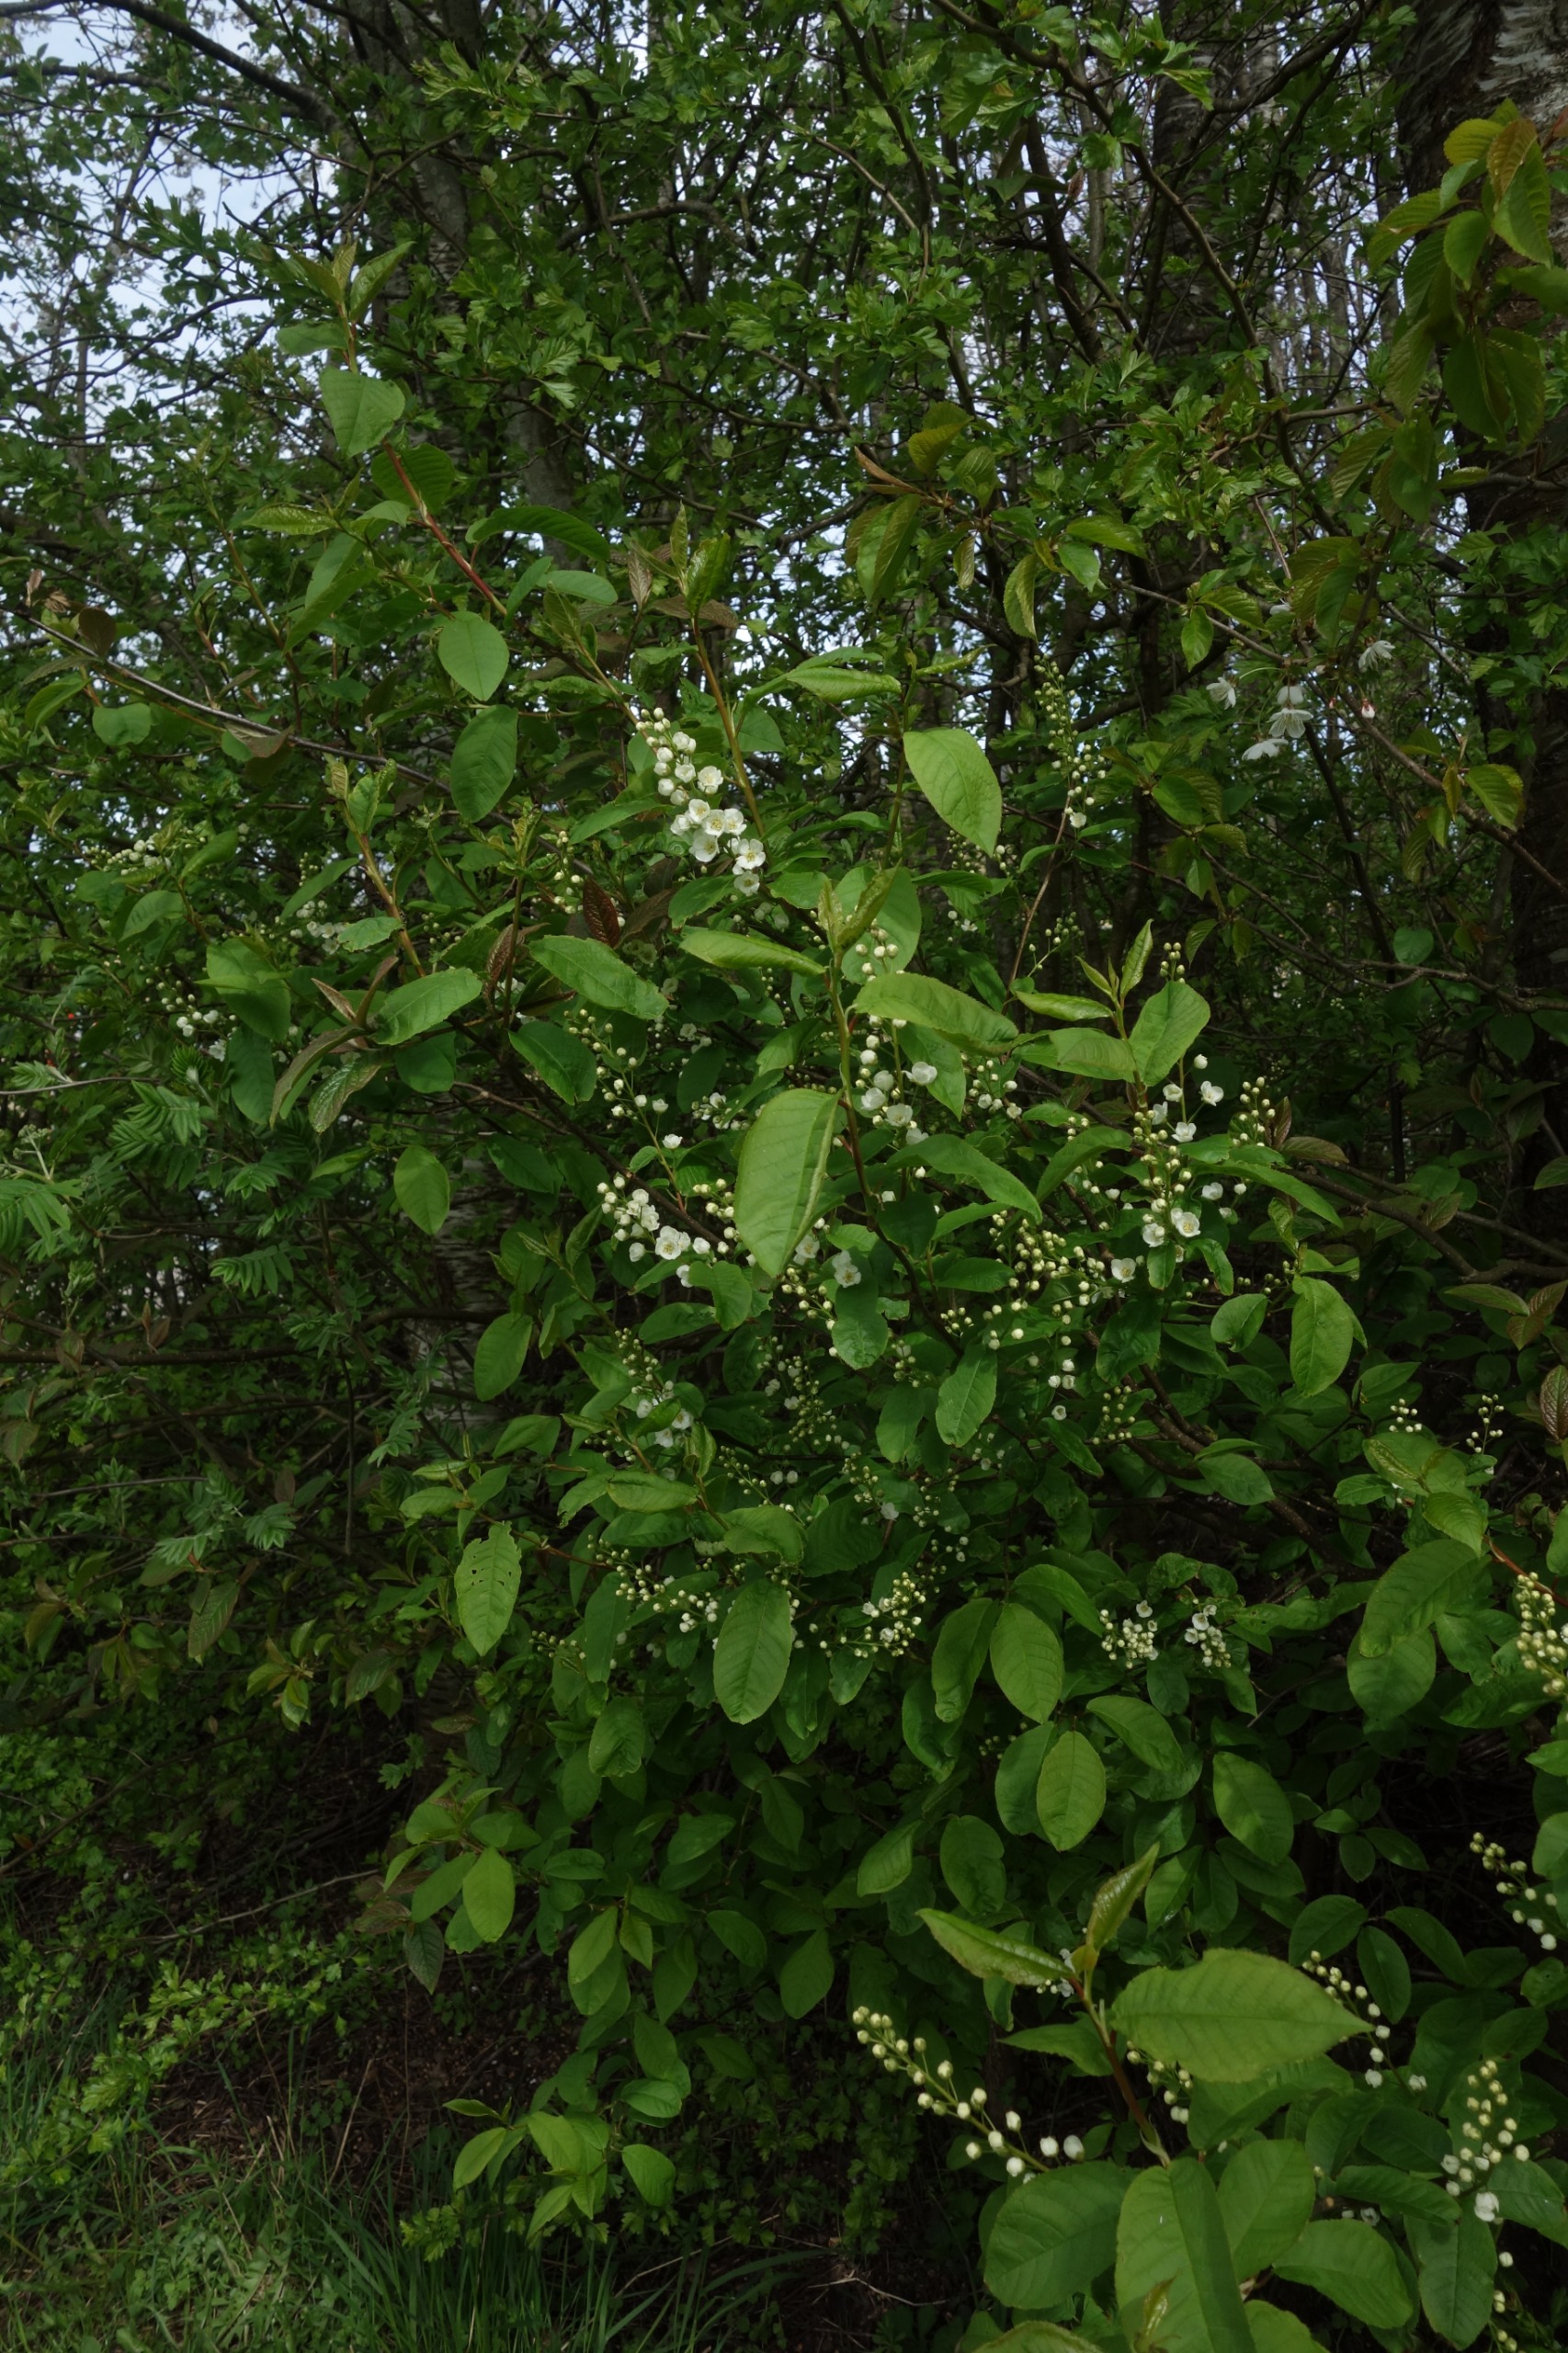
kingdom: Plantae
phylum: Tracheophyta
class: Magnoliopsida
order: Rosales
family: Rosaceae
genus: Prunus
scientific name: Prunus padus
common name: Almindelig hæg
